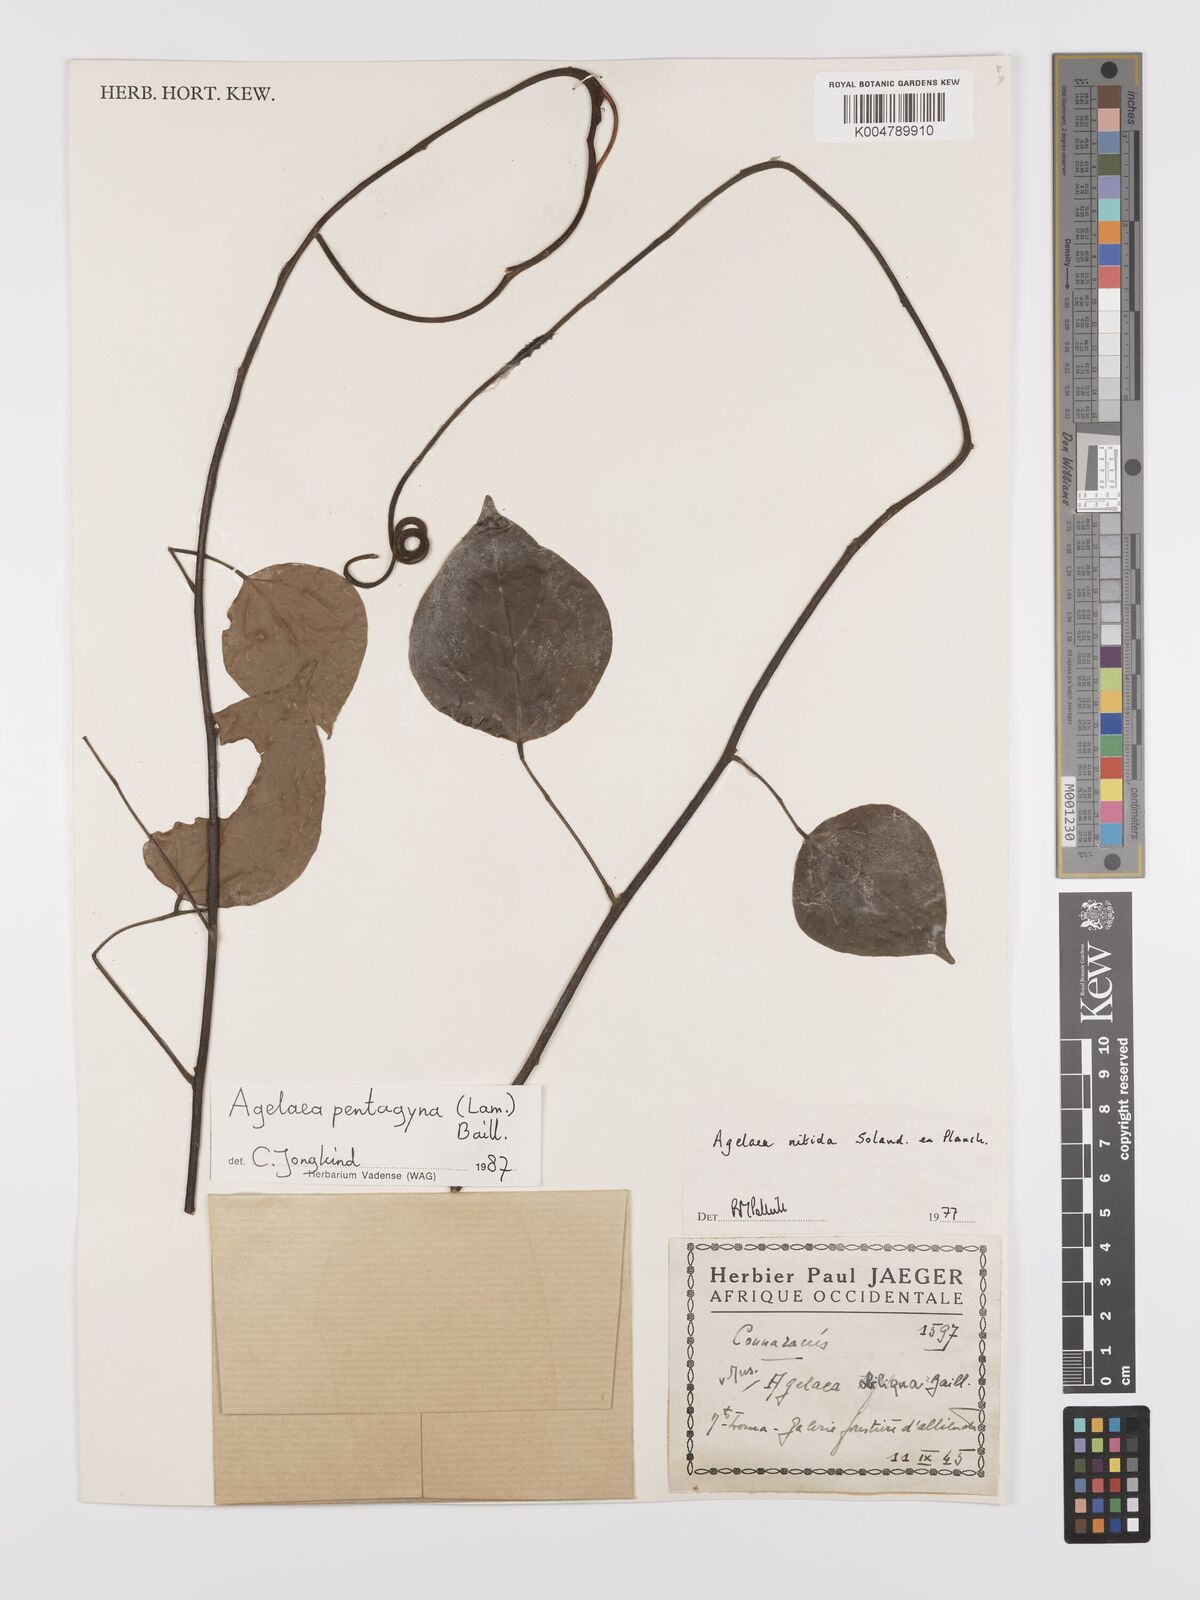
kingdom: Plantae
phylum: Tracheophyta
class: Magnoliopsida
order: Oxalidales
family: Connaraceae
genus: Agelaea
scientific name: Agelaea pentagyna
